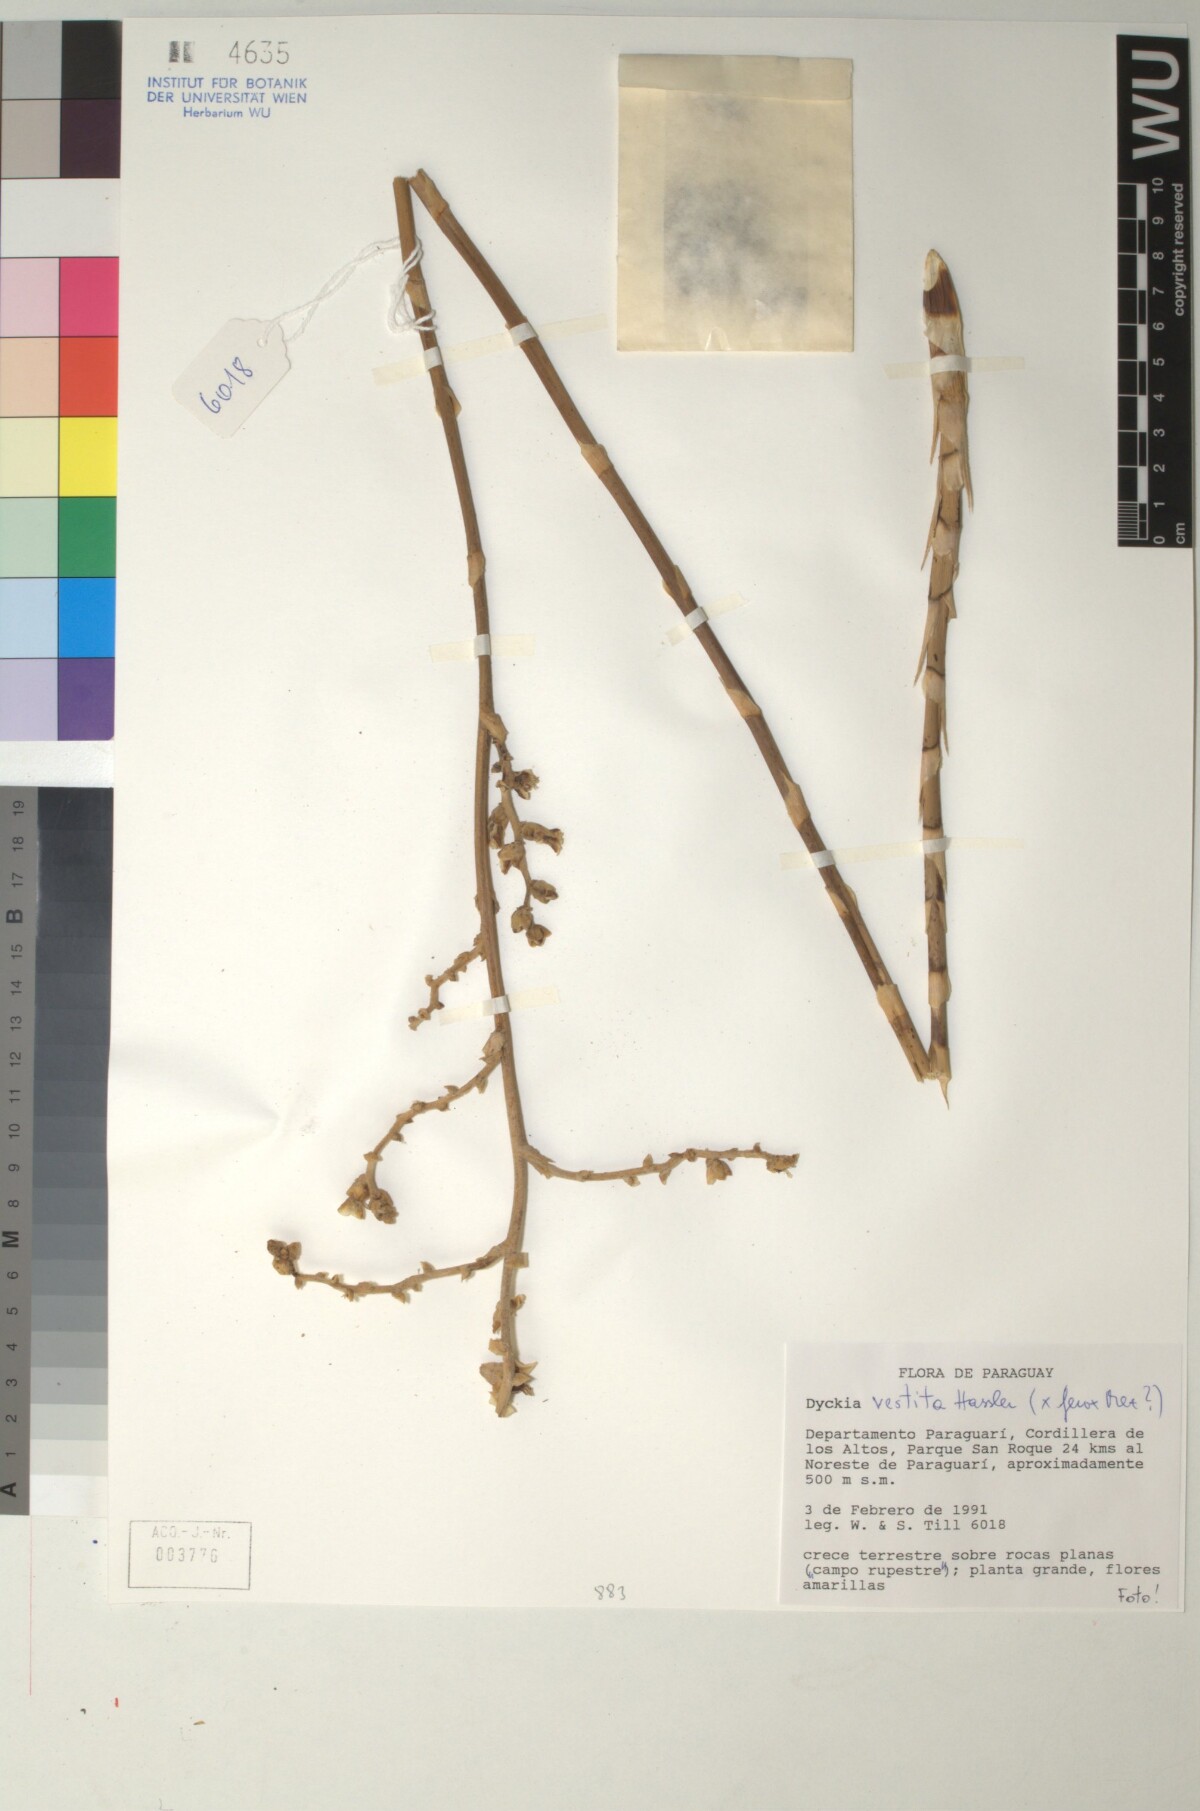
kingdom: Plantae
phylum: Tracheophyta
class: Liliopsida
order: Poales
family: Bromeliaceae
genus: Dyckia
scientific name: Dyckia vestita
